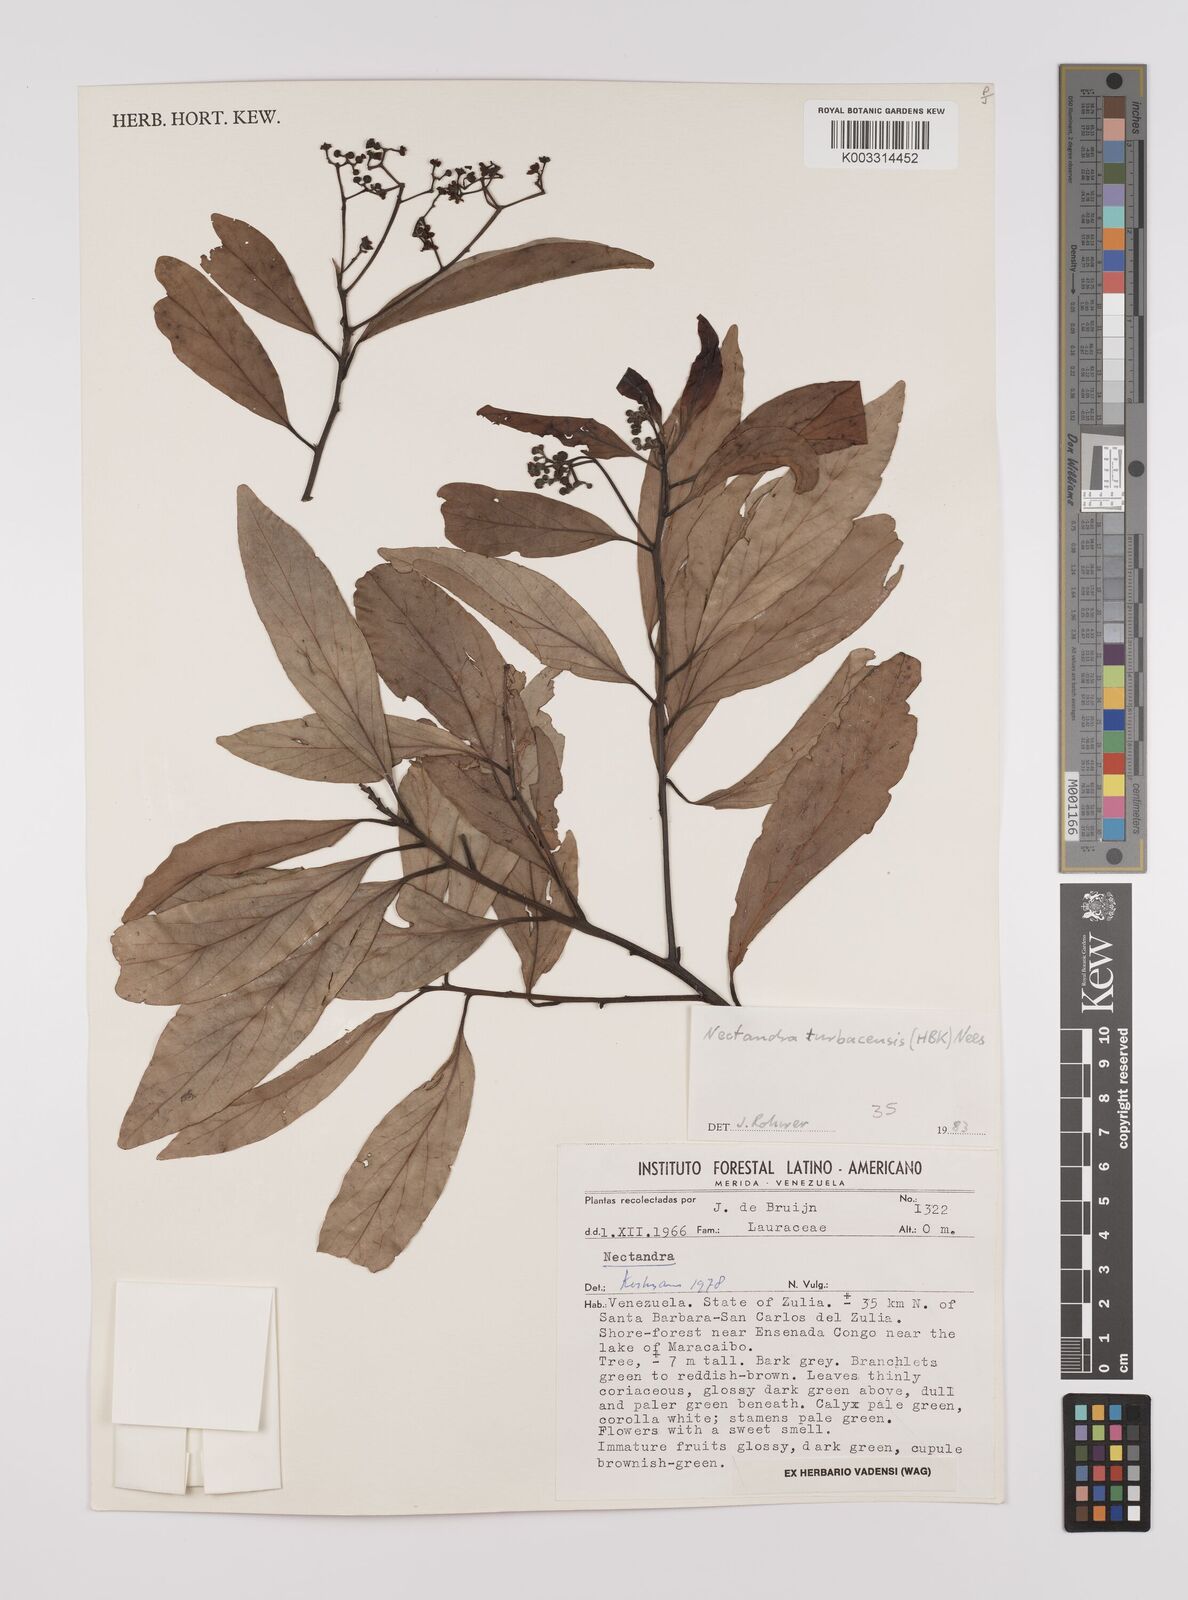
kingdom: Plantae
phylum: Tracheophyta
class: Magnoliopsida
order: Laurales
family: Lauraceae
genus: Nectandra
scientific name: Nectandra turbacensis
